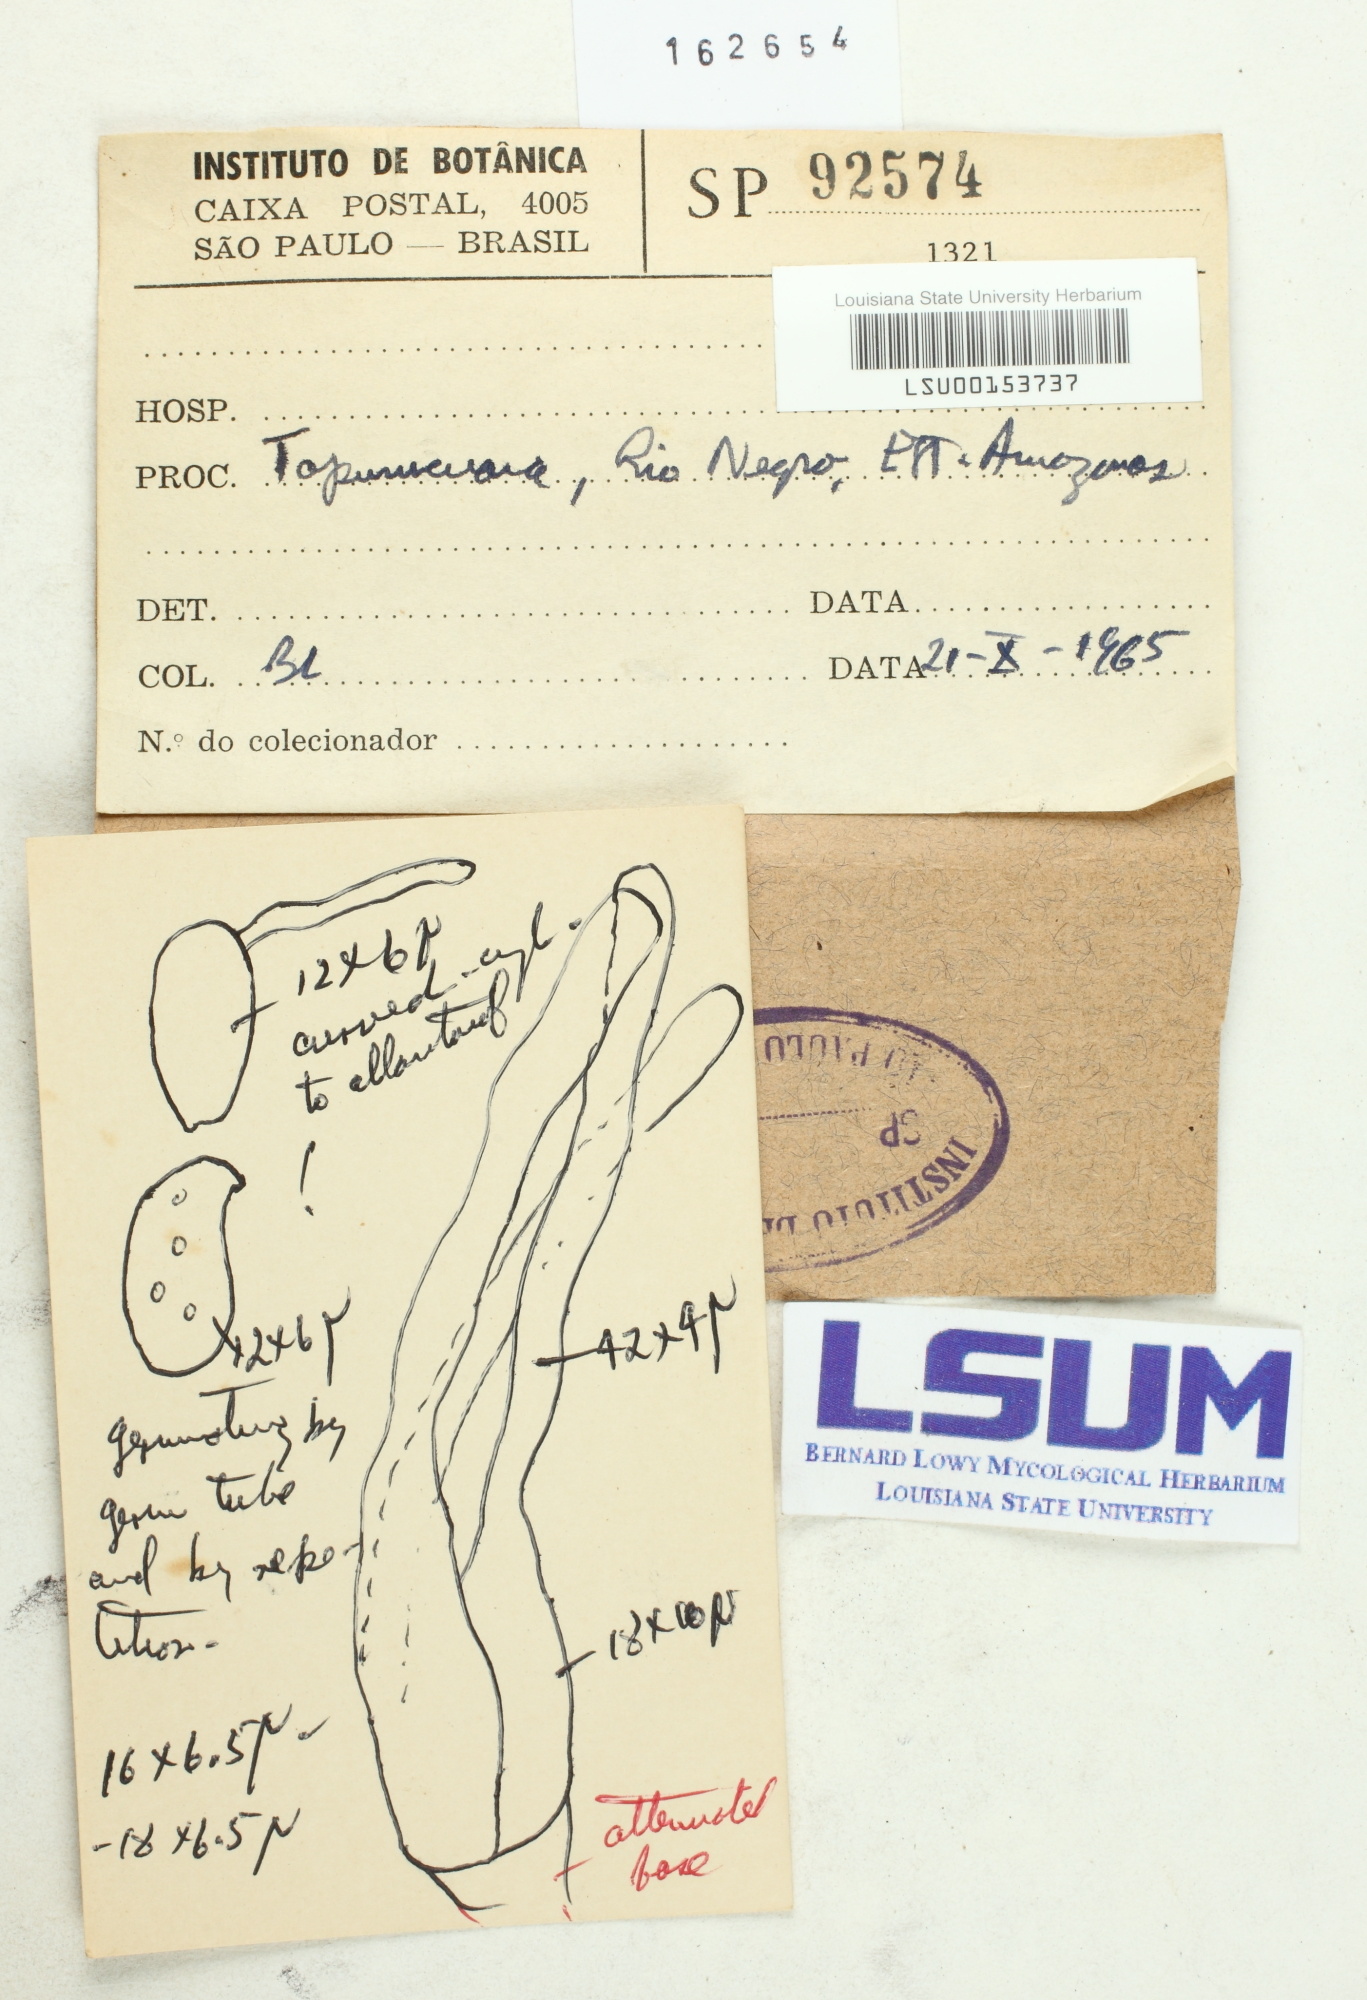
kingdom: Fungi
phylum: Basidiomycota
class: Agaricomycetes
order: Sebacinales
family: Sebacinaceae
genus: Sebacina
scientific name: Sebacina
